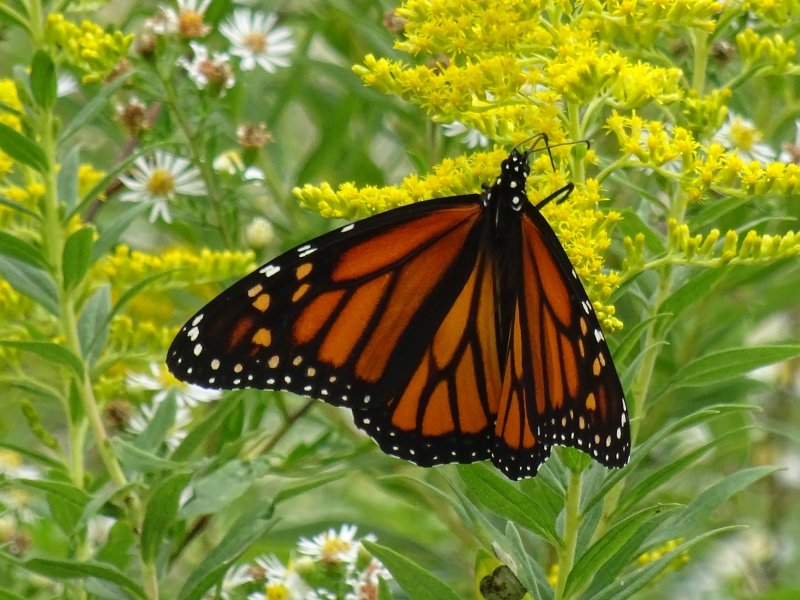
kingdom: Animalia
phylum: Arthropoda
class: Insecta
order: Lepidoptera
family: Nymphalidae
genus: Danaus
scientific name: Danaus plexippus
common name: Monarch
